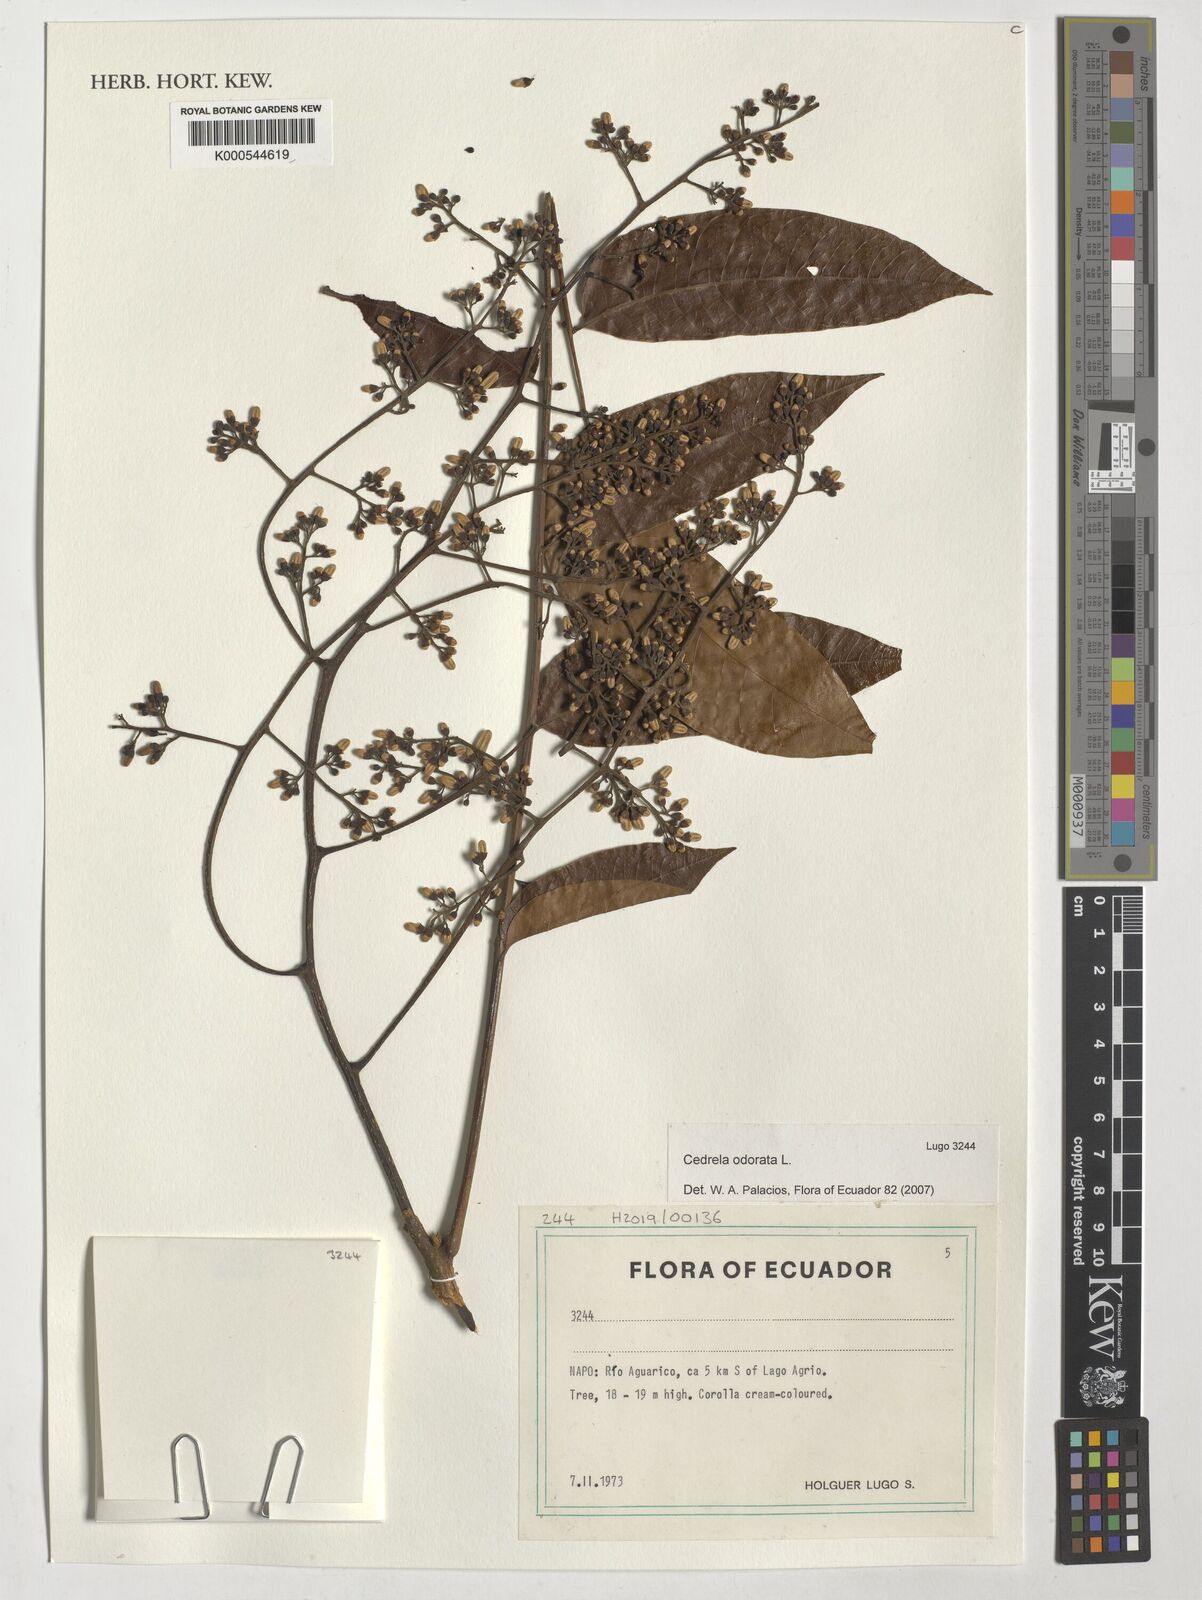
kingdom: Plantae
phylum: Tracheophyta
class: Magnoliopsida
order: Sapindales
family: Meliaceae
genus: Cedrela
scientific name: Cedrela odorata
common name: Red cedar
